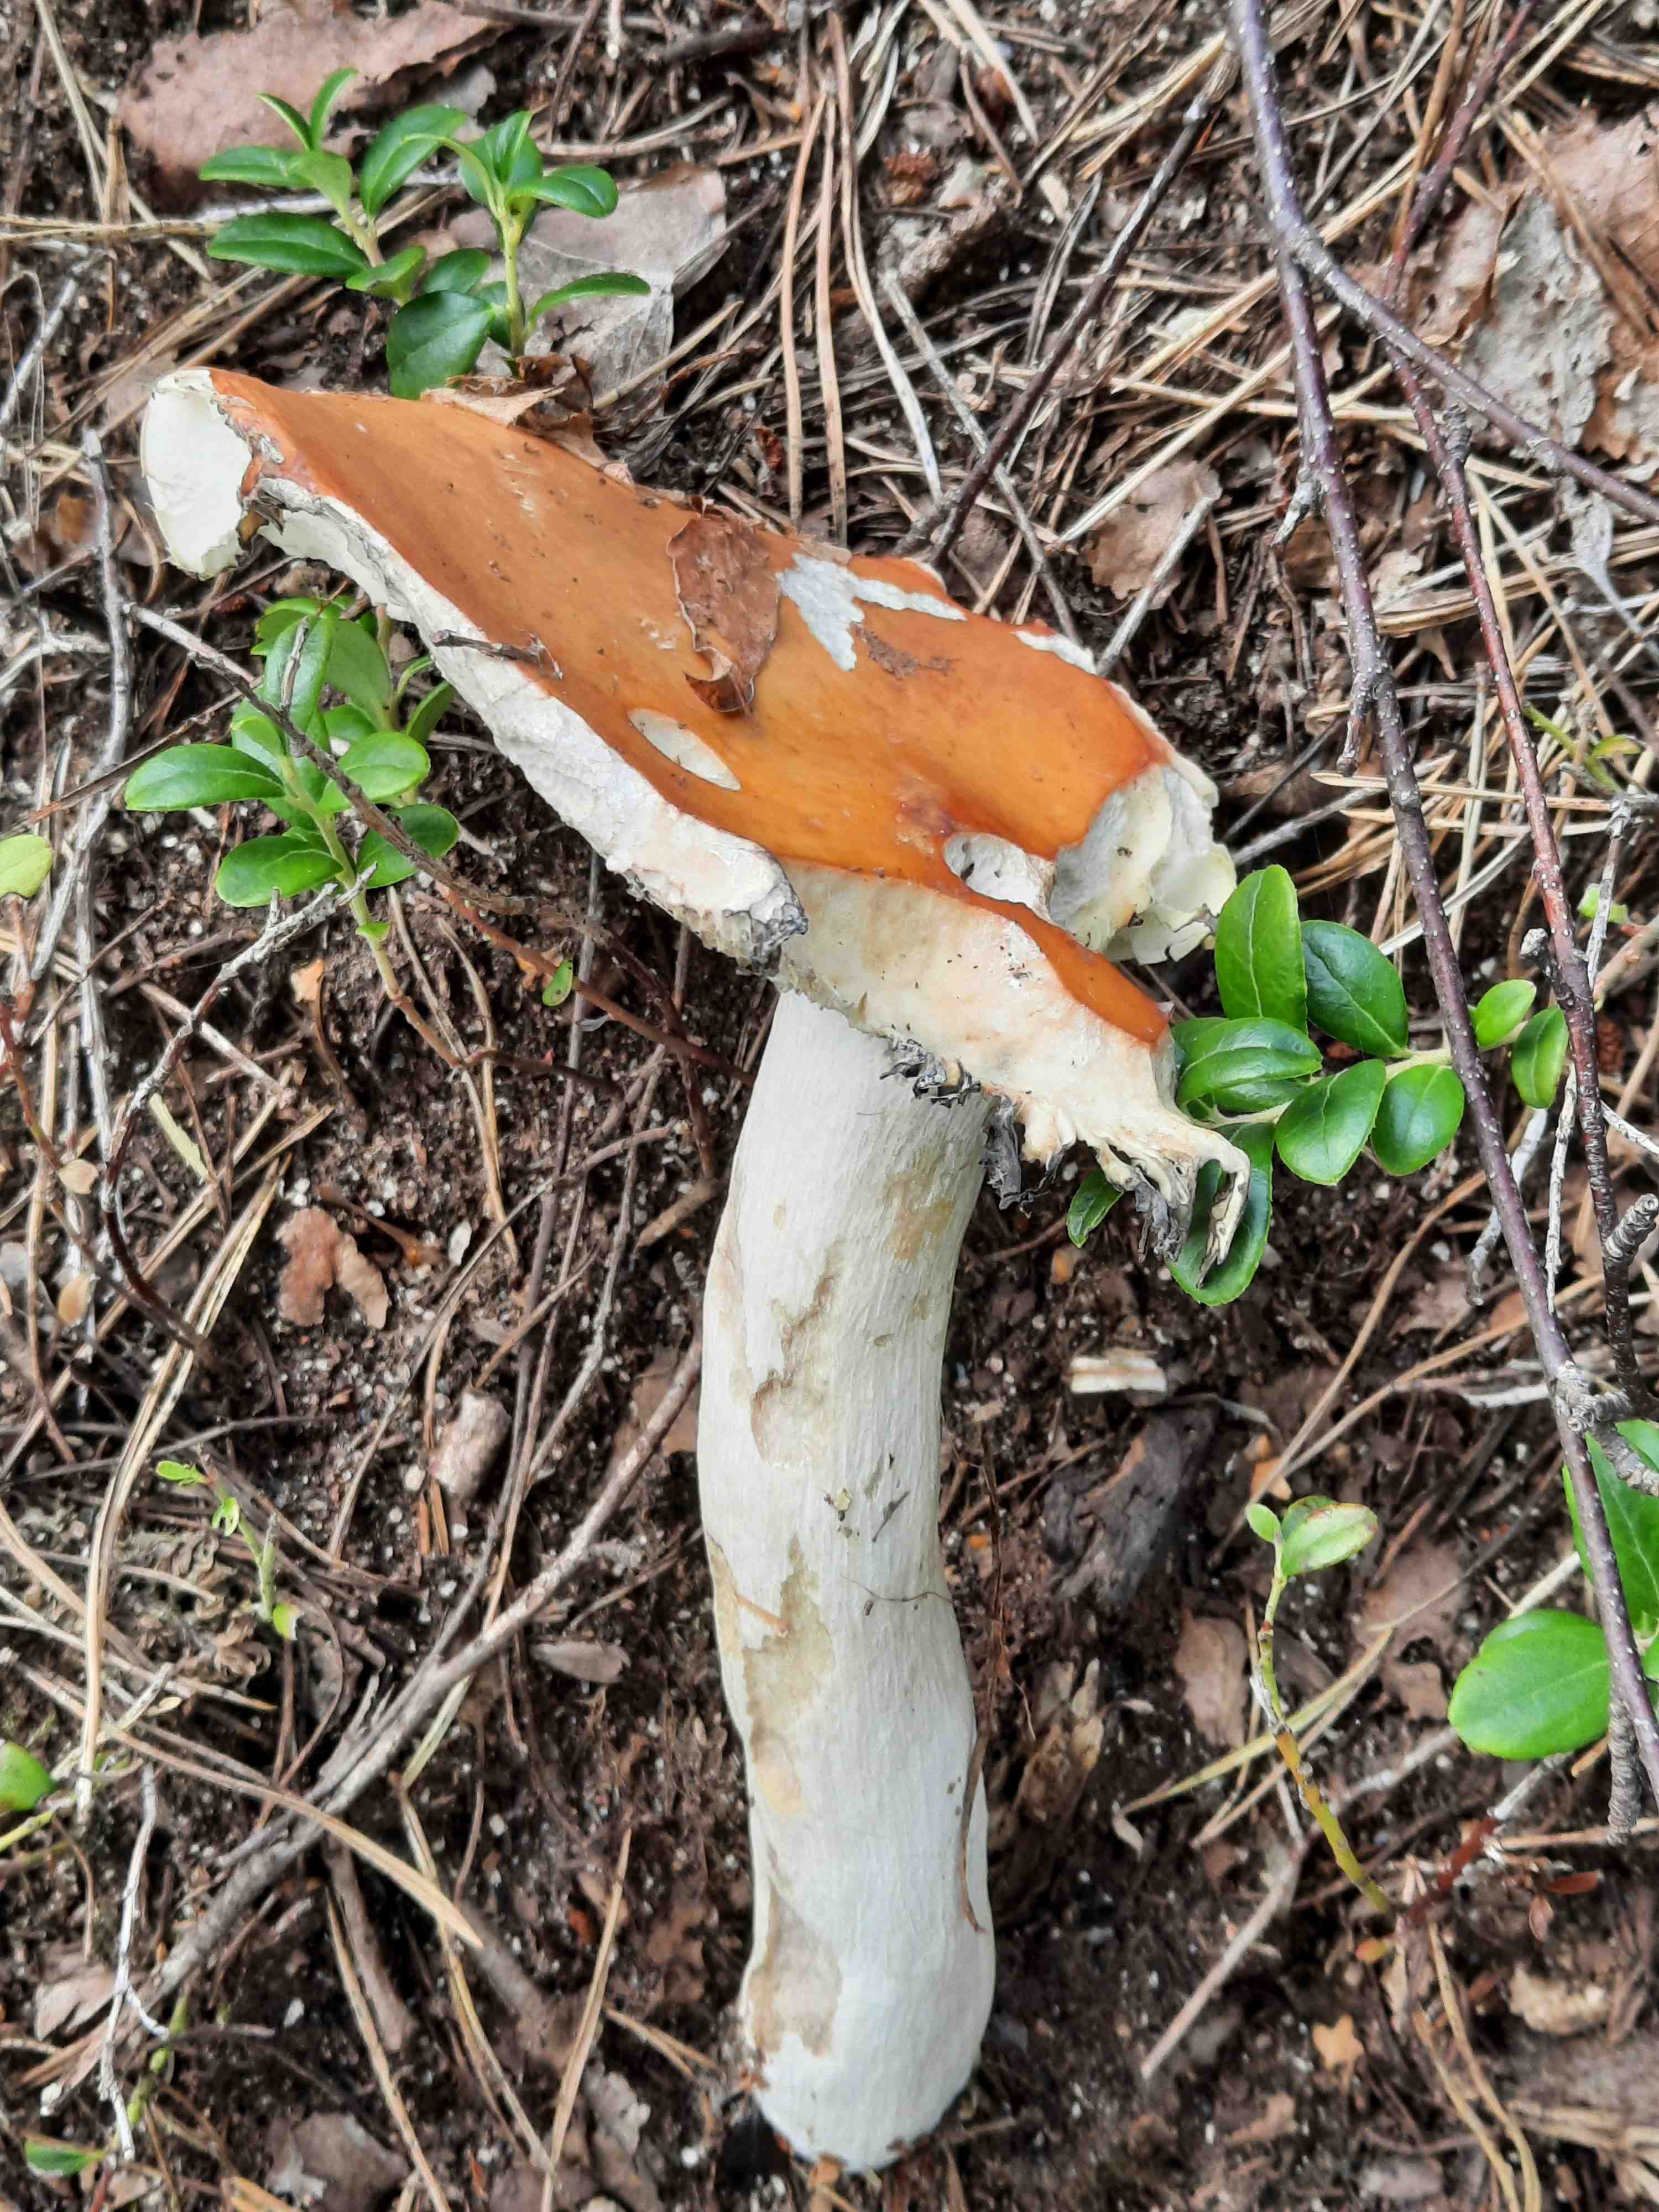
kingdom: Fungi
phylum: Basidiomycota
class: Agaricomycetes
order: Russulales
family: Russulaceae
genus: Russula
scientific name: Russula decolorans
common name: afblegende skørhat
